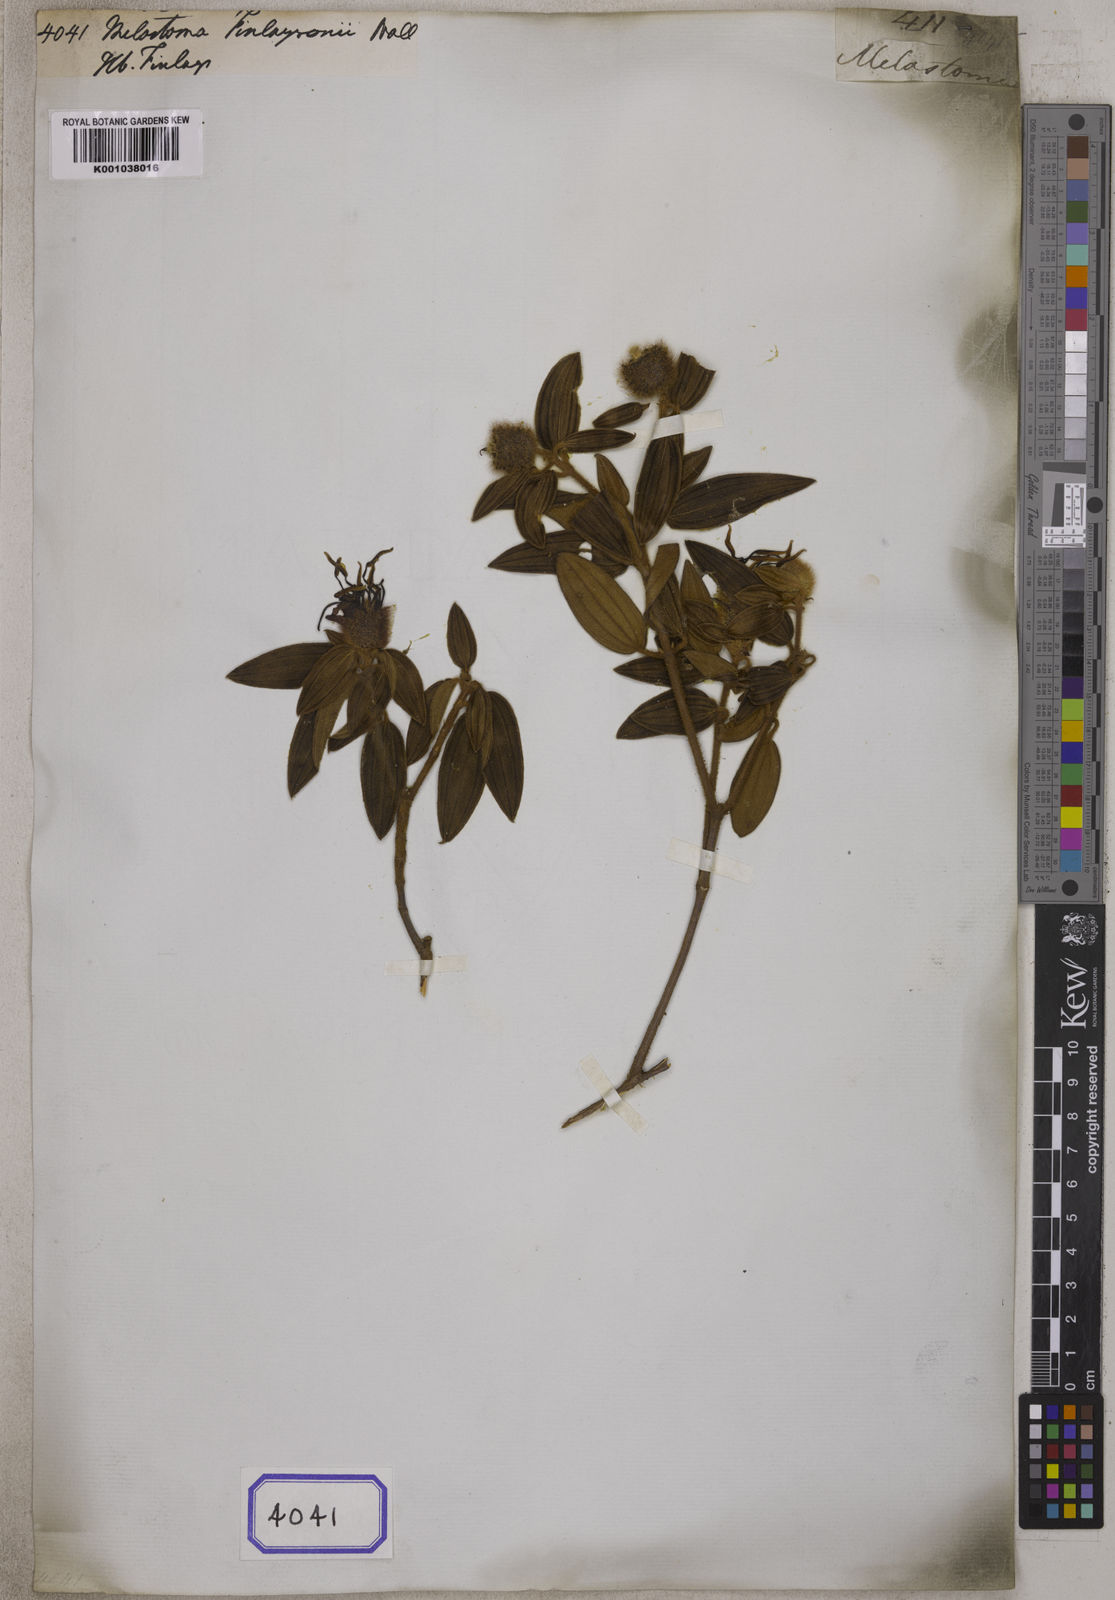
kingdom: Plantae
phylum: Tracheophyta
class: Magnoliopsida
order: Myrtales
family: Melastomataceae
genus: Melastoma
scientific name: Melastoma finlaysonii
